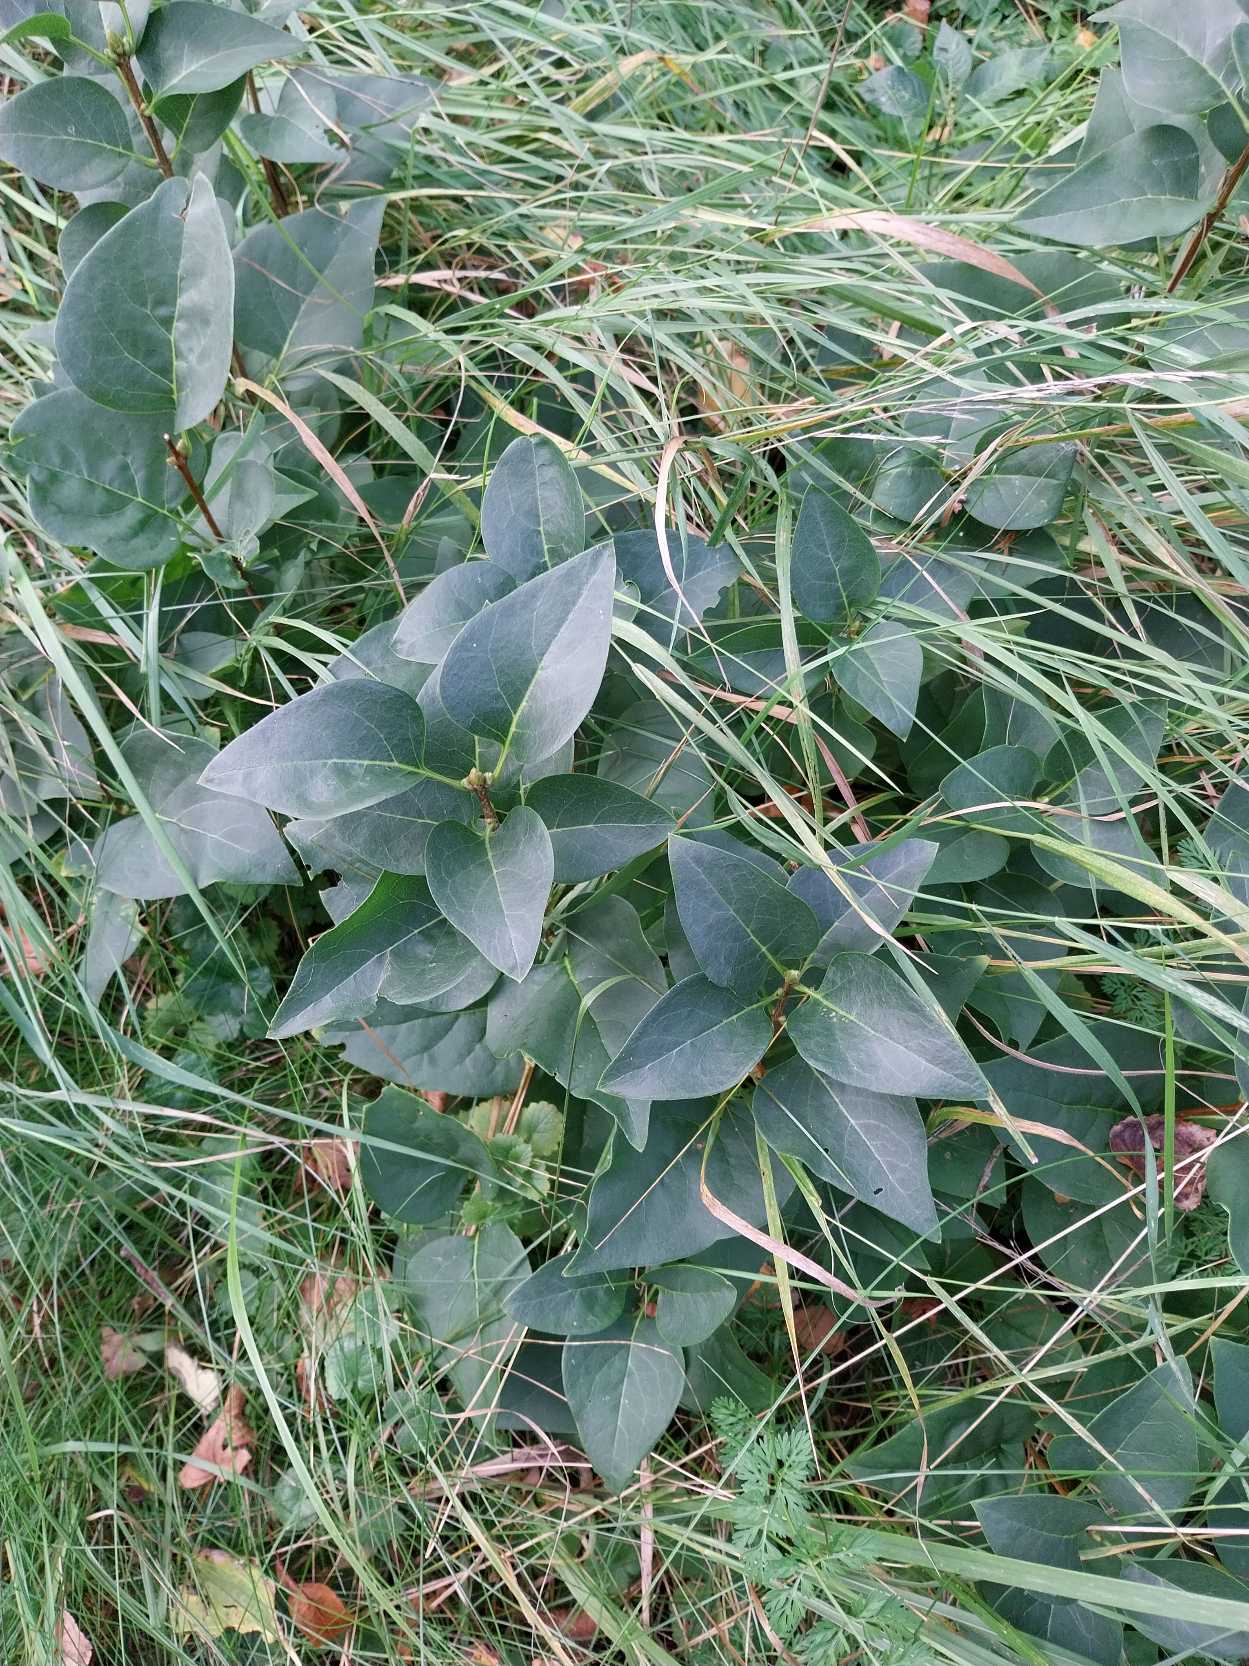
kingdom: Plantae
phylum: Tracheophyta
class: Magnoliopsida
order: Lamiales
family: Oleaceae
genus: Syringa
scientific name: Syringa vulgaris
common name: Syren
